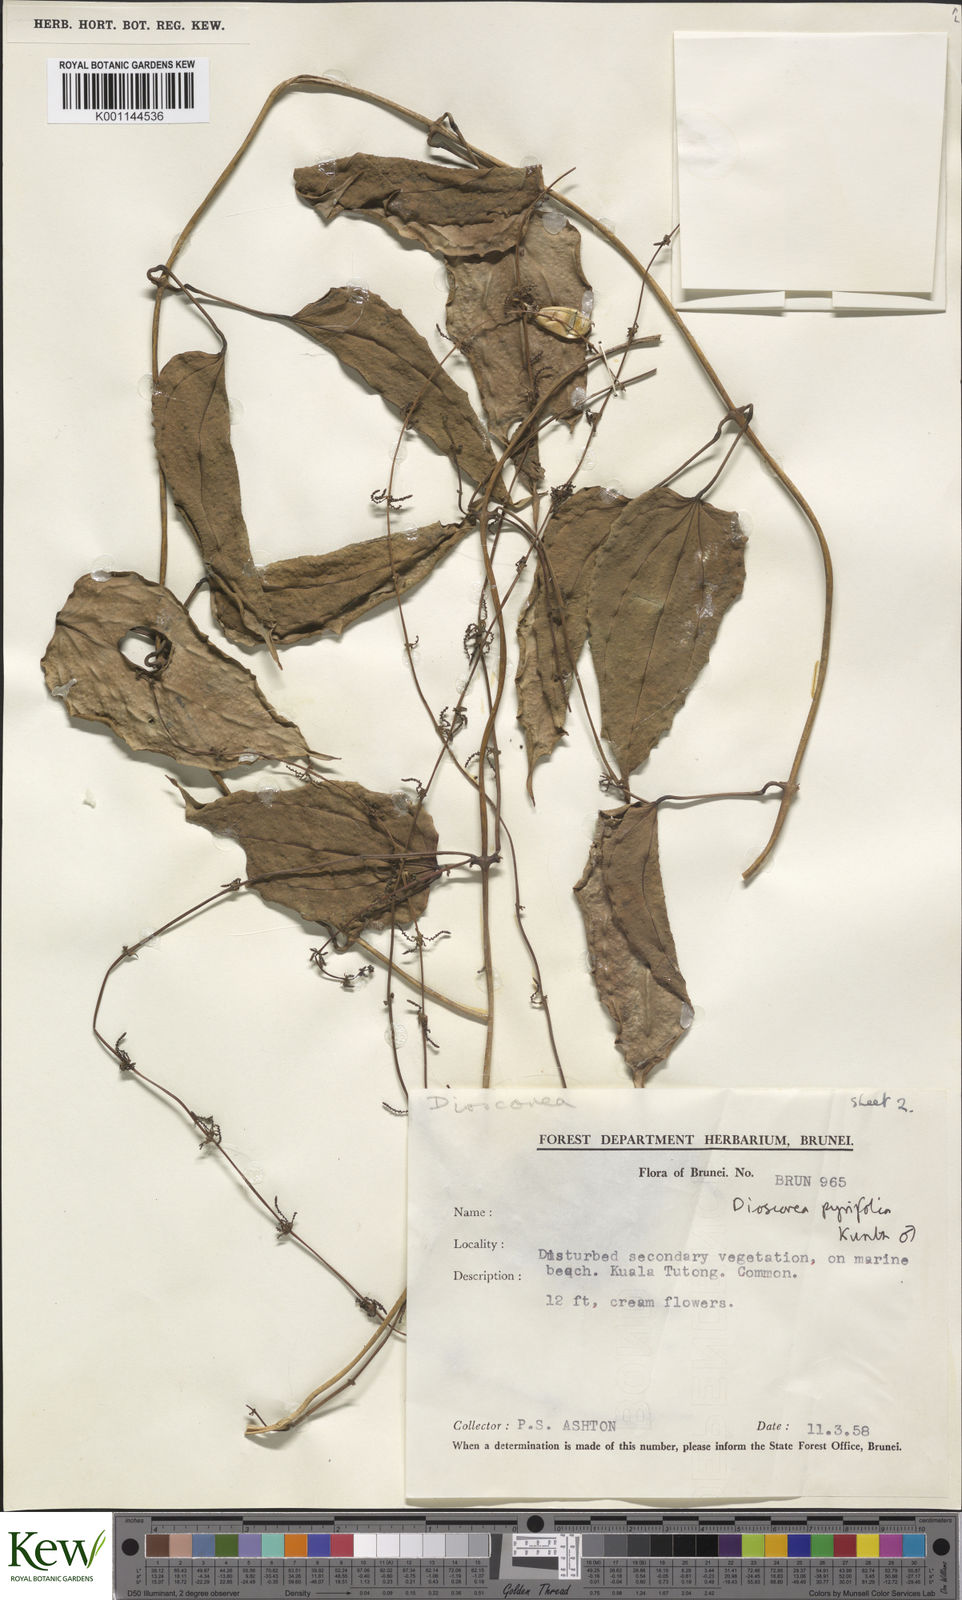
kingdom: Plantae
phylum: Tracheophyta
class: Liliopsida
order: Dioscoreales
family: Dioscoreaceae
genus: Dioscorea
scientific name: Dioscorea pyrifolia
